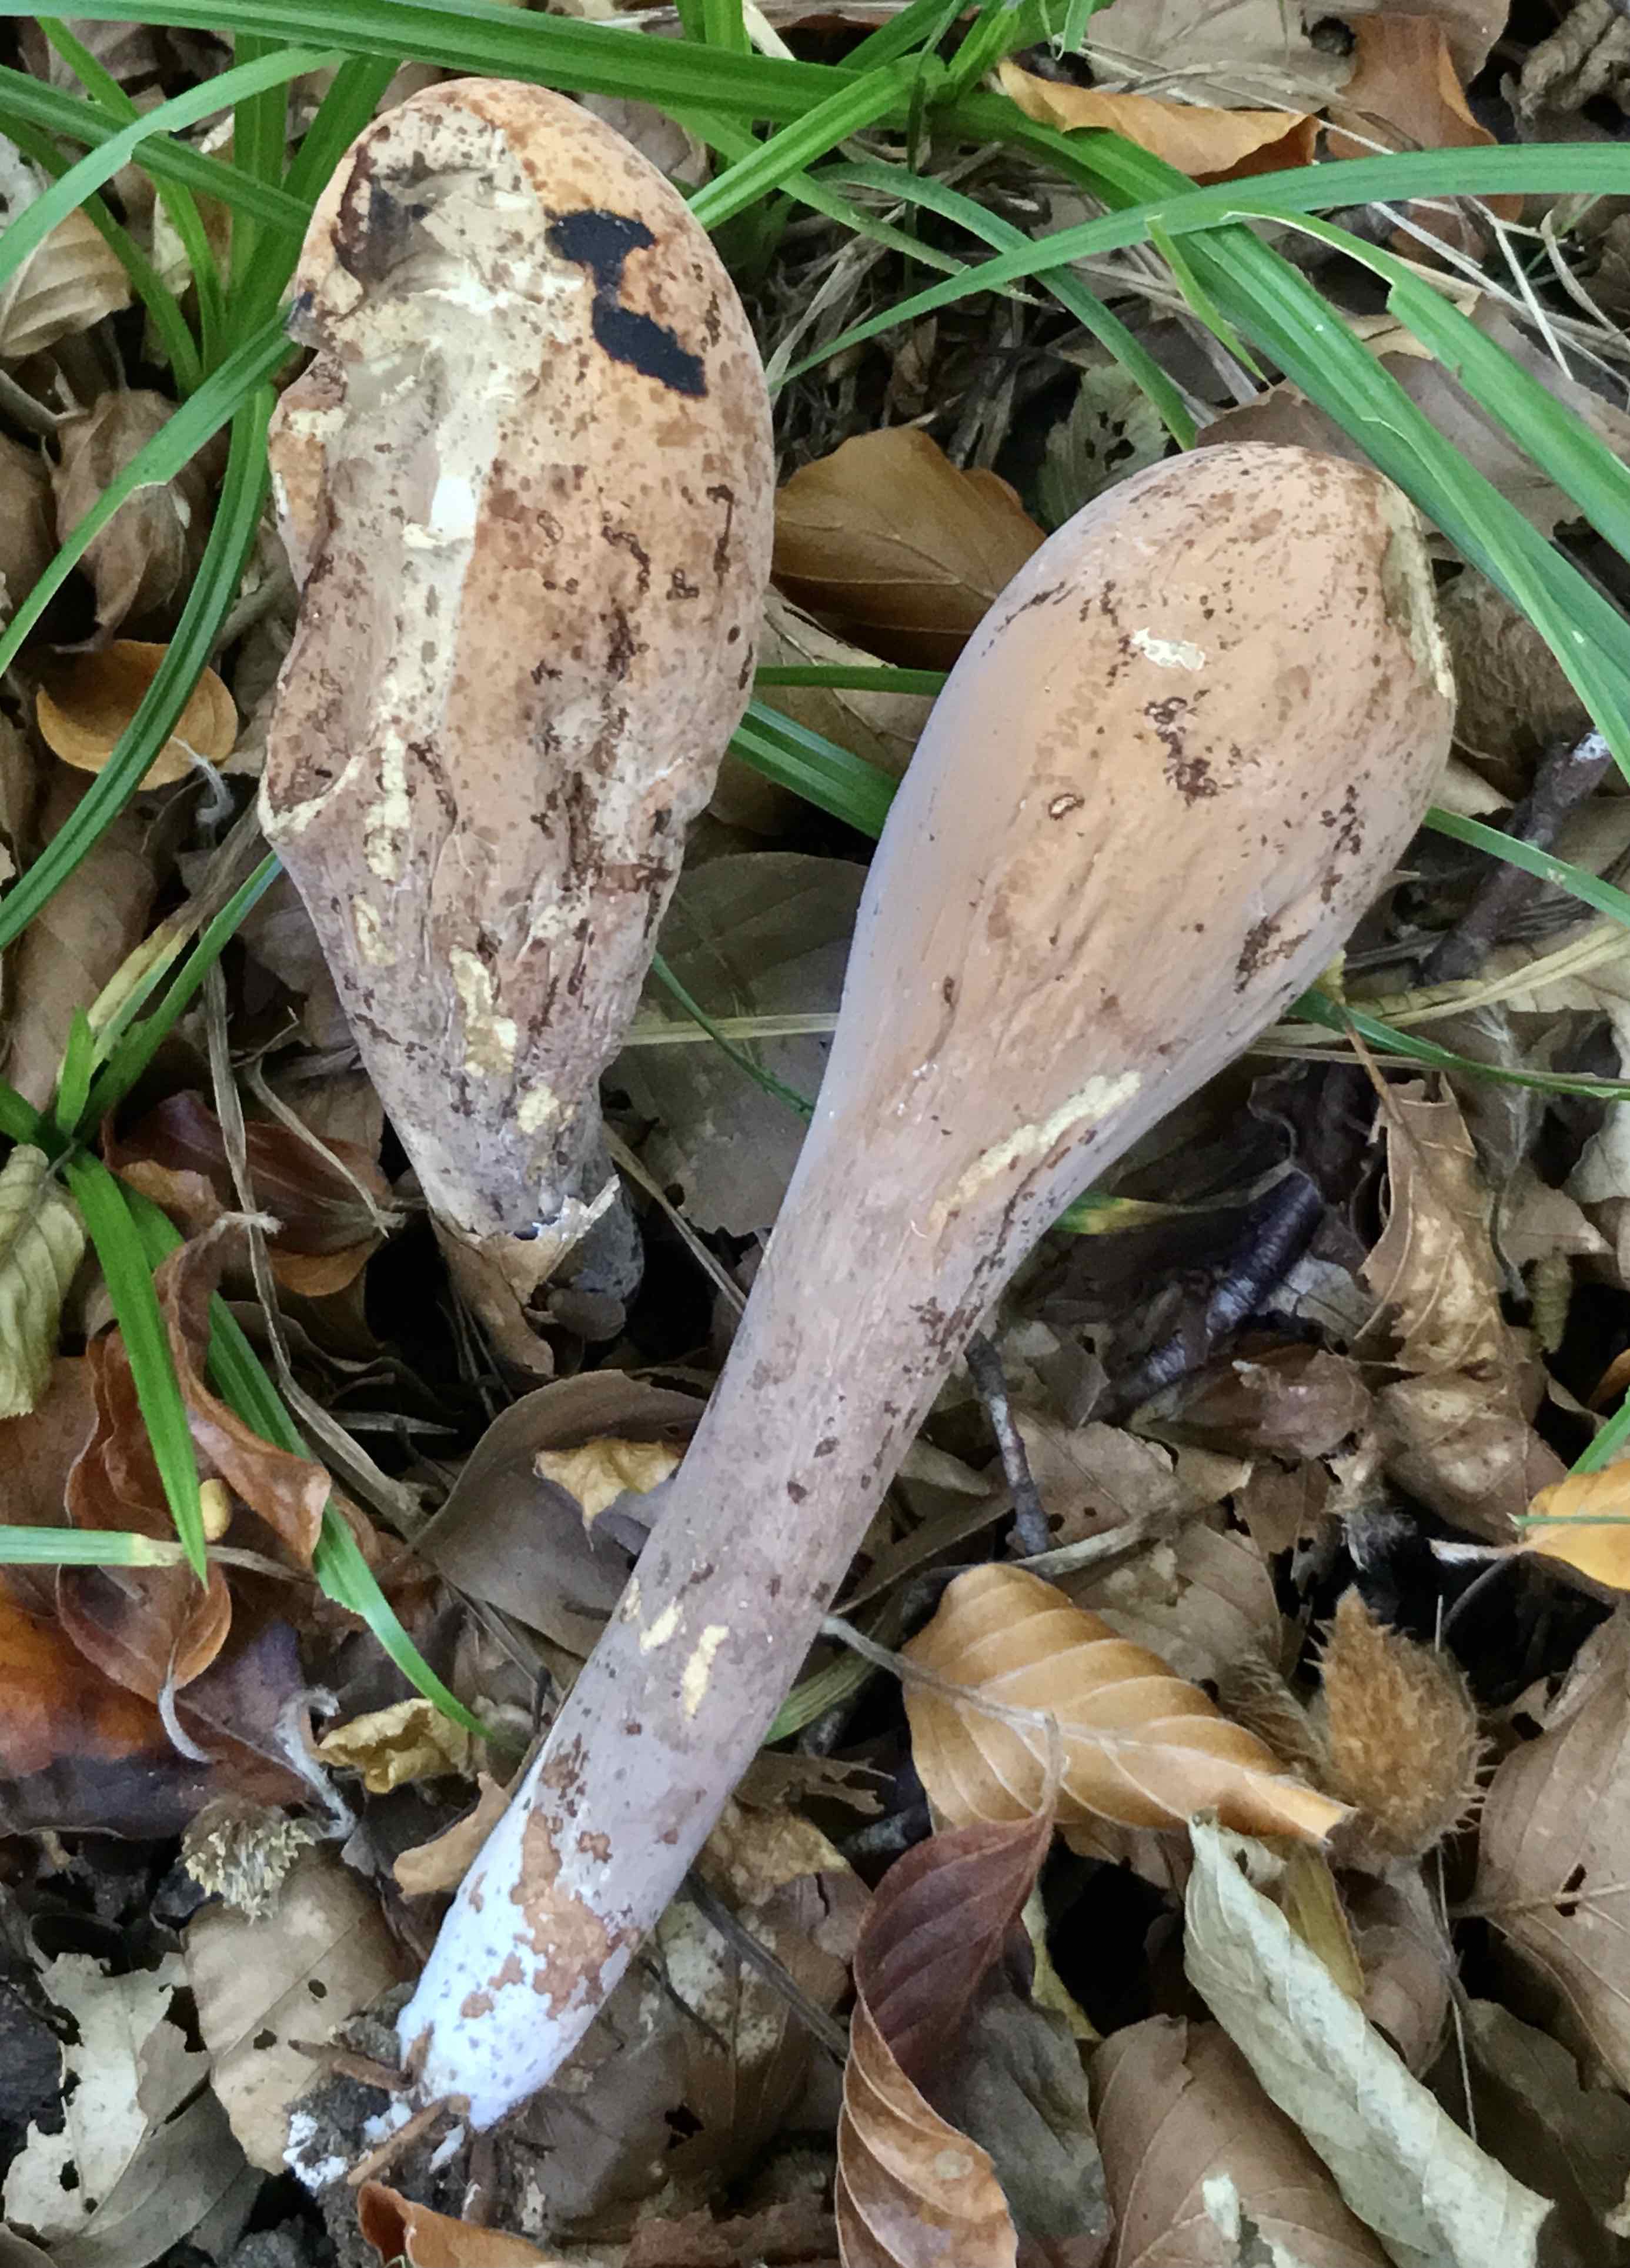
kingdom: Fungi
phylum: Basidiomycota
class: Agaricomycetes
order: Gomphales
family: Clavariadelphaceae
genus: Clavariadelphus
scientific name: Clavariadelphus pistillaris
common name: herkules-kæmpekølle
